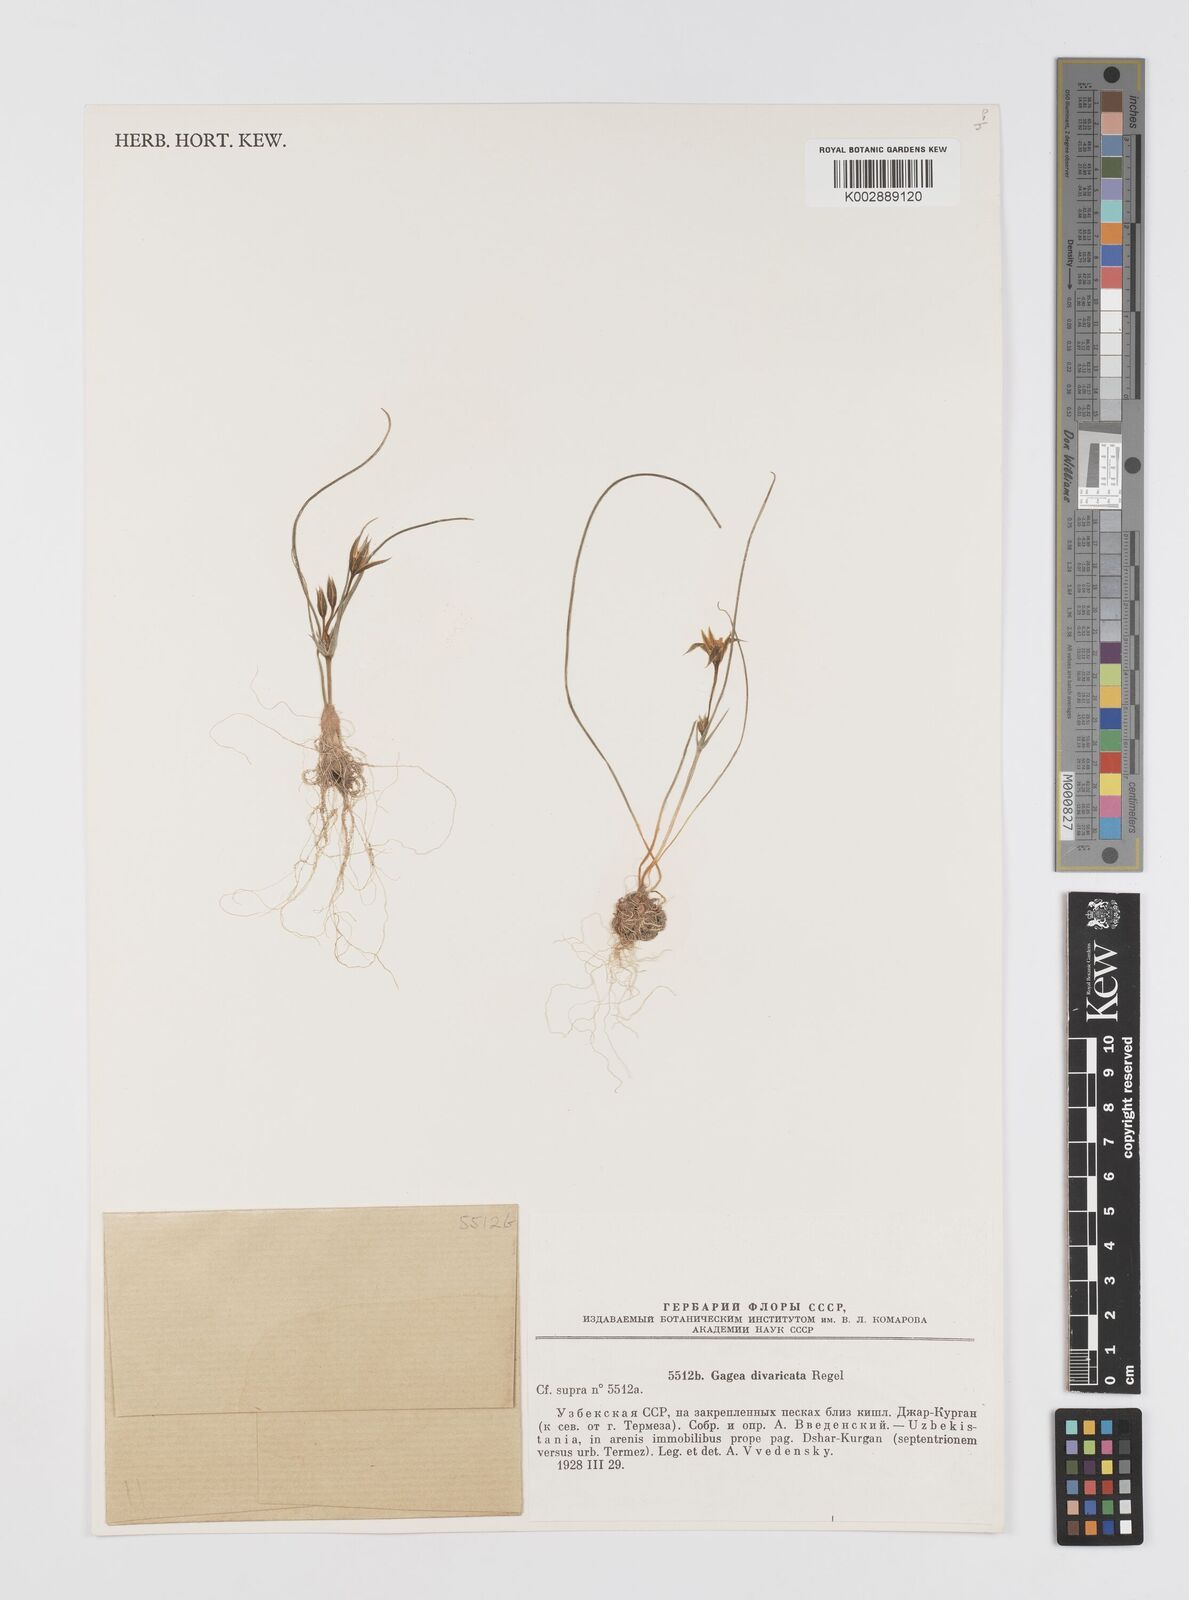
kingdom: Plantae
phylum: Tracheophyta
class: Liliopsida
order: Liliales
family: Liliaceae
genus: Gagea
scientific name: Gagea divaricata
